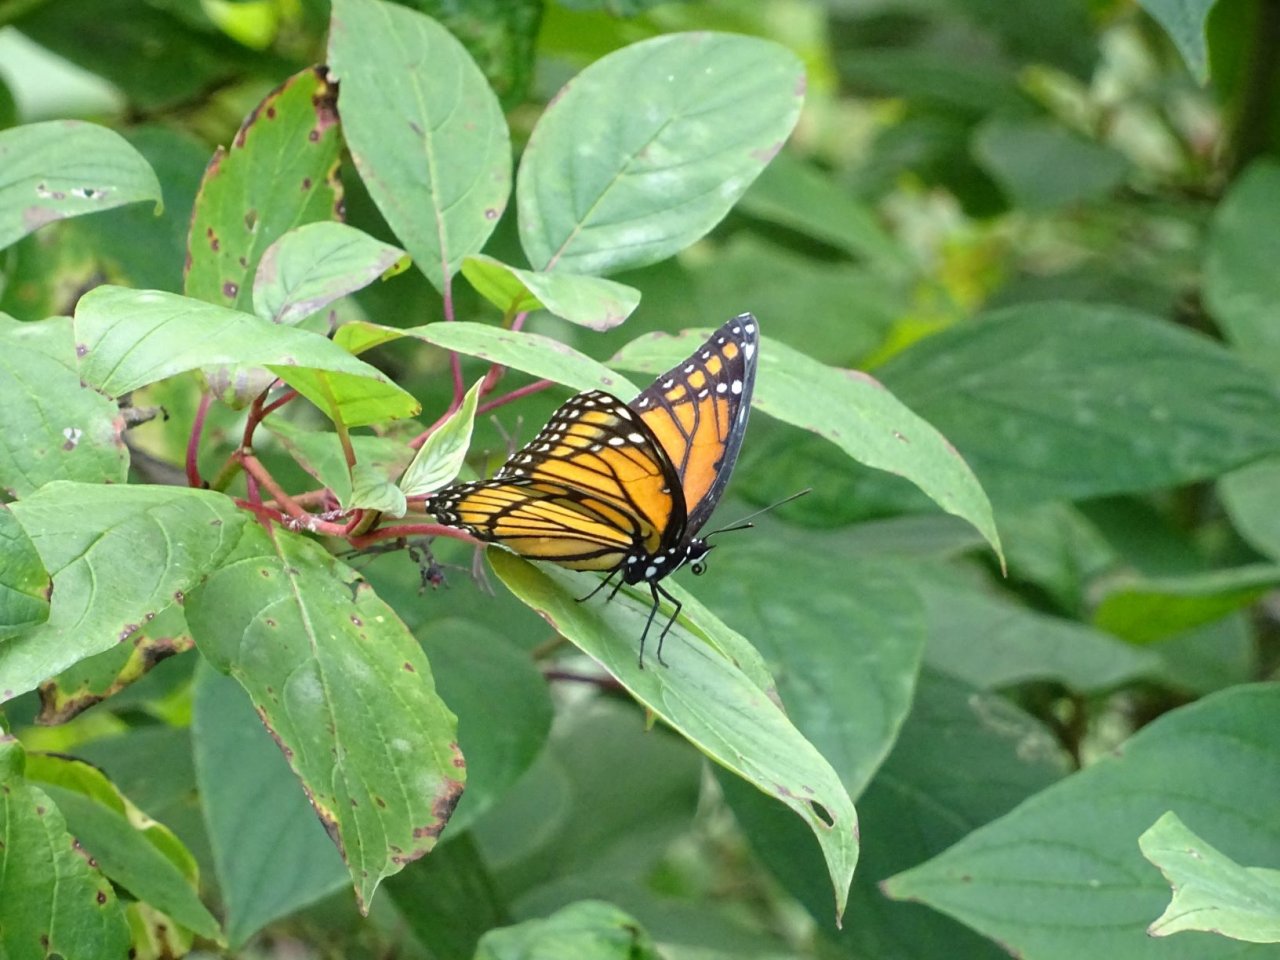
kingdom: Animalia
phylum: Arthropoda
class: Insecta
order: Lepidoptera
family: Nymphalidae
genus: Limenitis
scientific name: Limenitis archippus
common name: Viceroy
